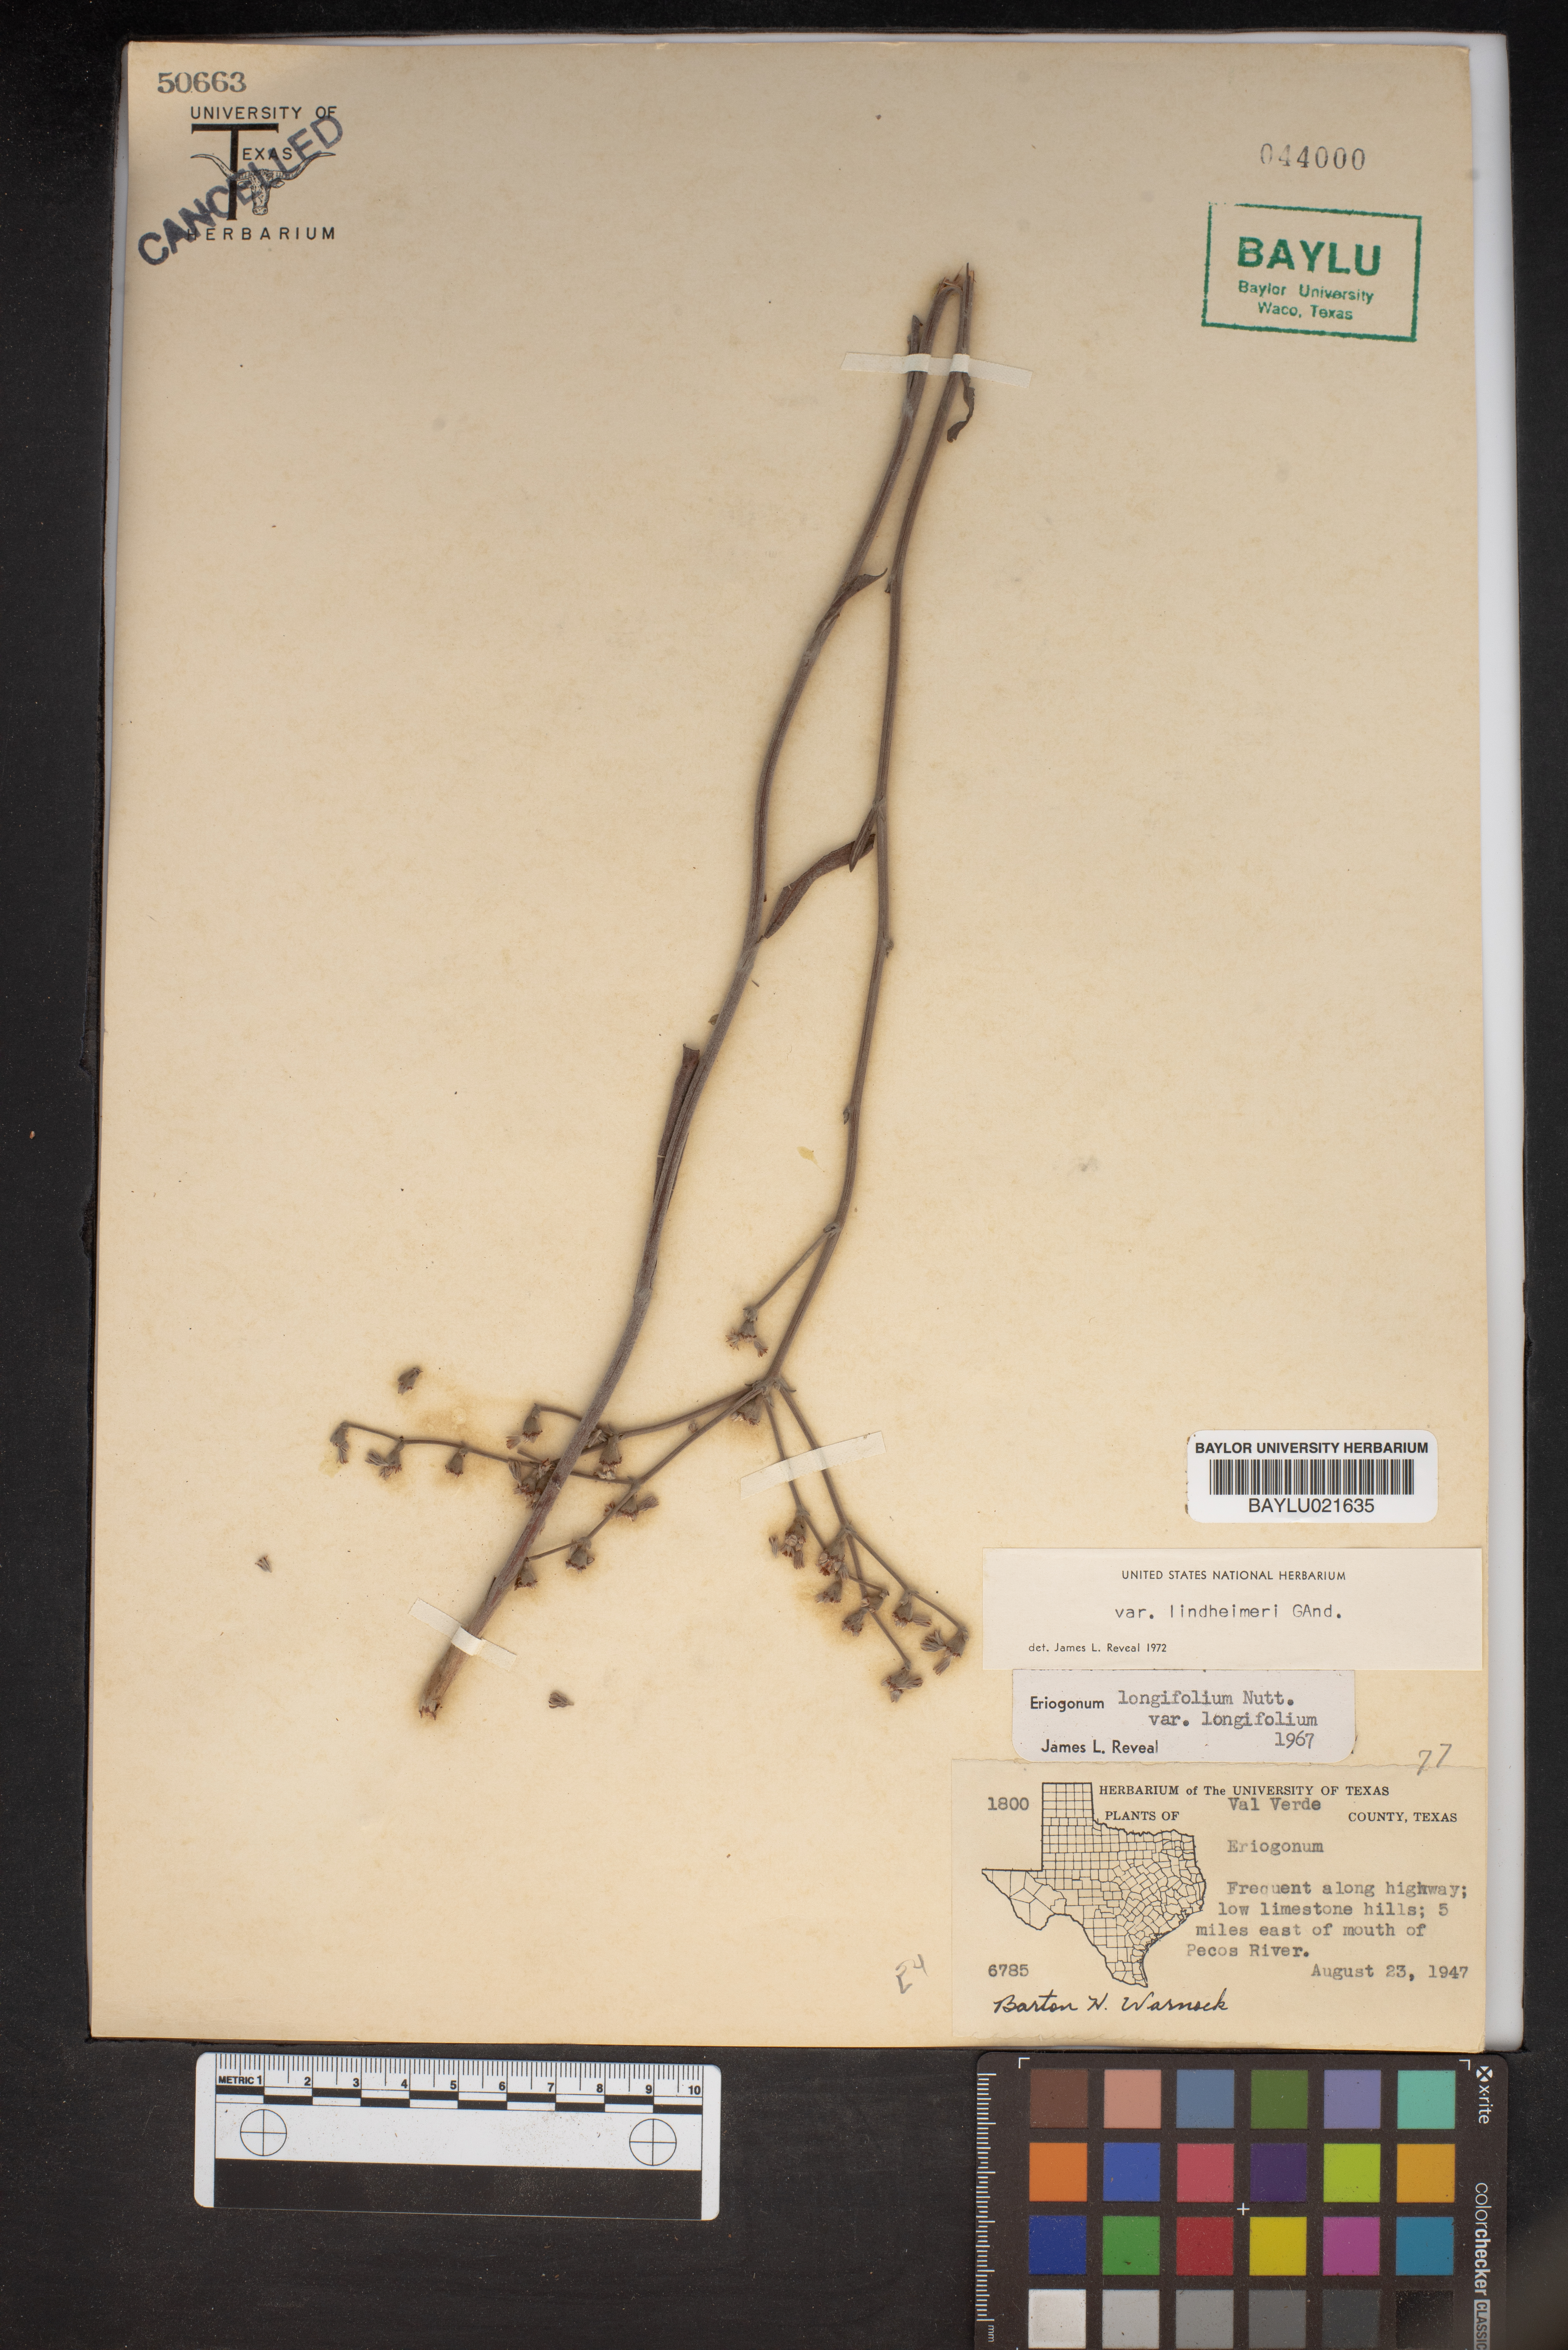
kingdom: Plantae
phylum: Tracheophyta
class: Magnoliopsida
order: Caryophyllales
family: Polygonaceae
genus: Eriogonum
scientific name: Eriogonum longifolium
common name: Longleaf wild buckwheat
